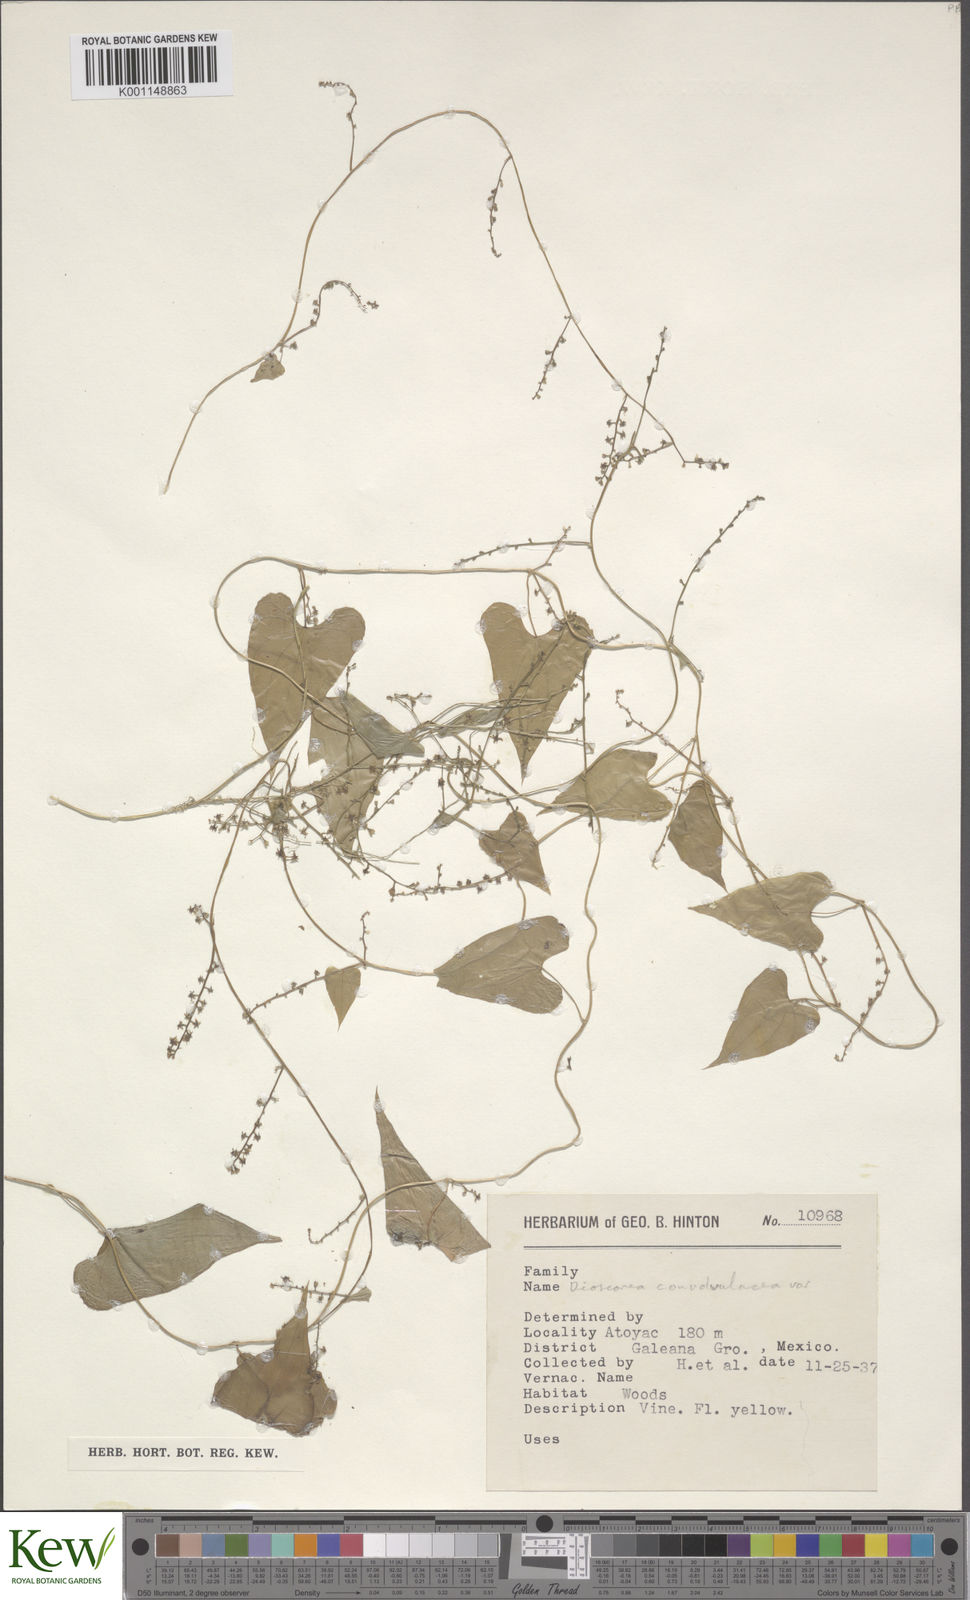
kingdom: Plantae
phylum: Tracheophyta
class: Liliopsida
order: Dioscoreales
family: Dioscoreaceae
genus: Dioscorea
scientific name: Dioscorea convolvulacea
